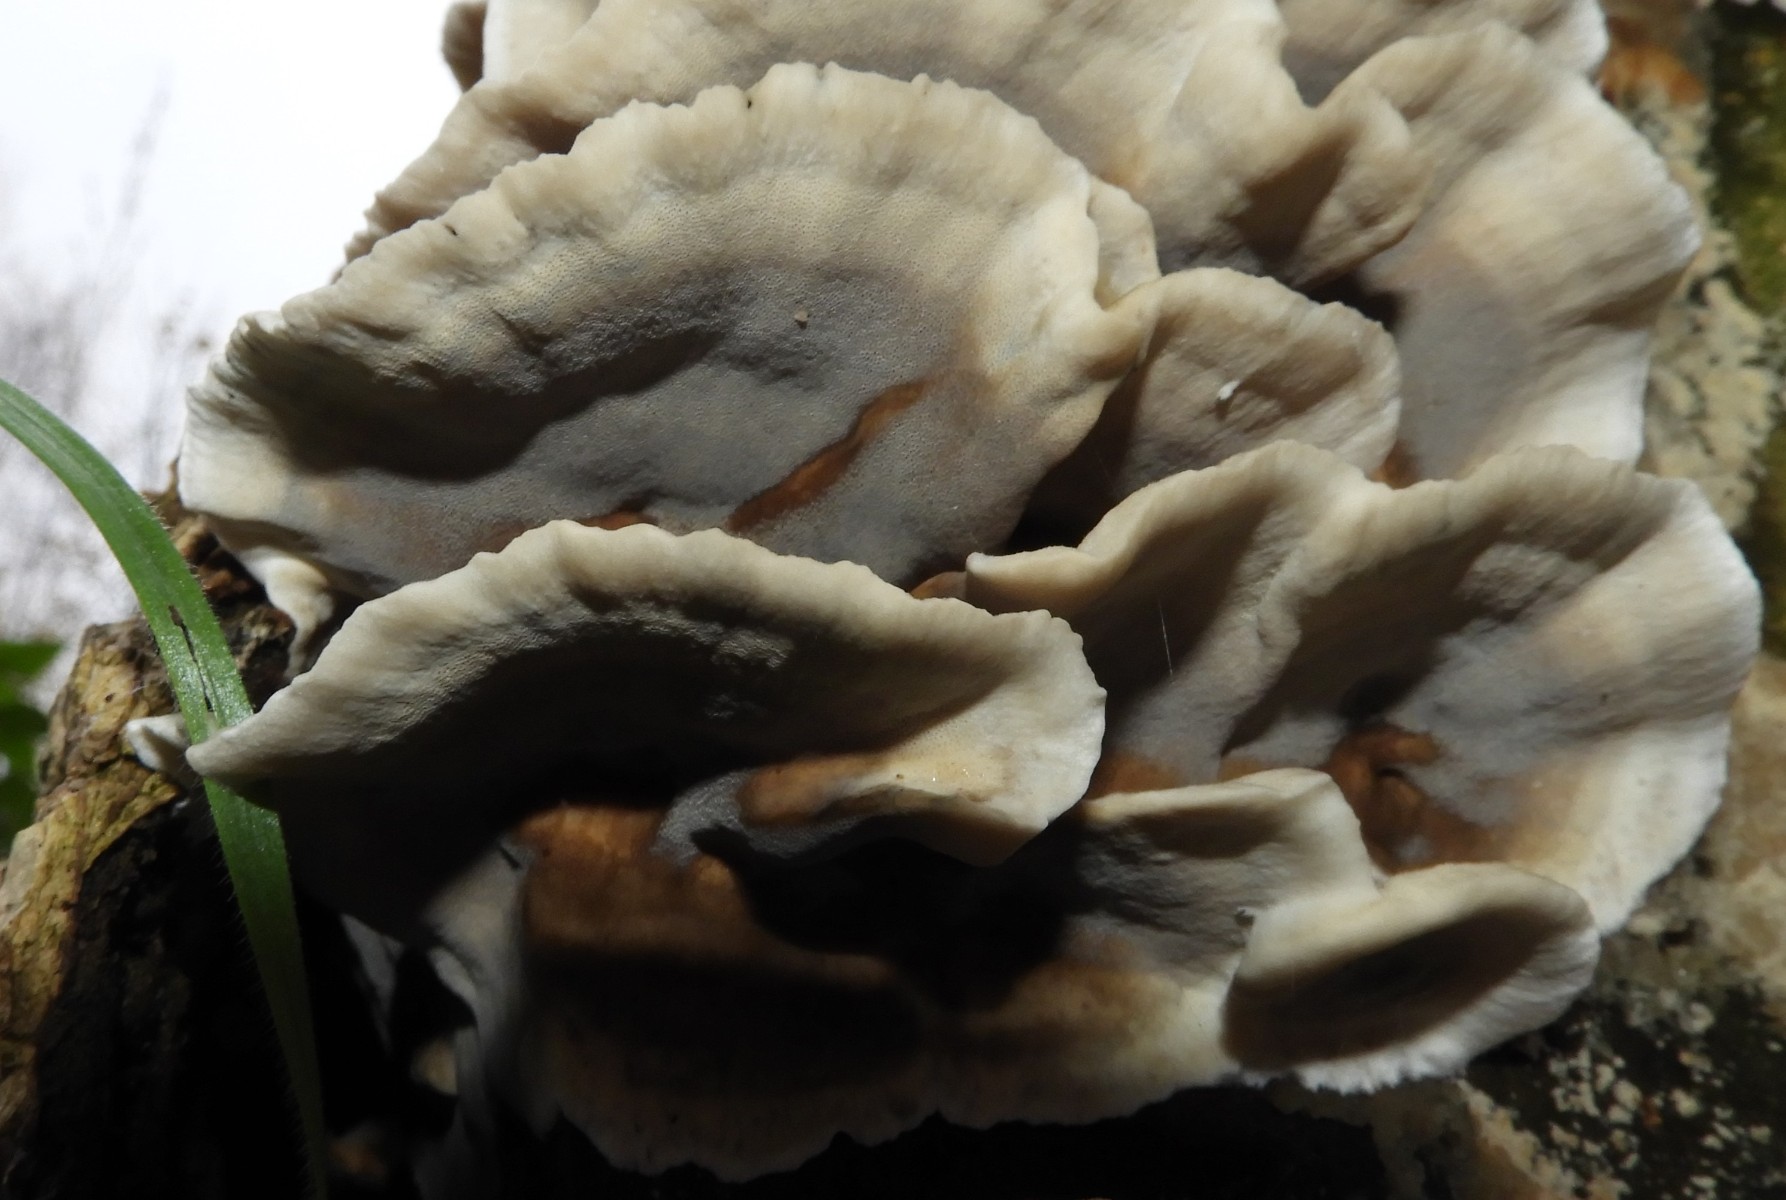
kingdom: Fungi
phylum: Basidiomycota
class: Agaricomycetes
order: Polyporales
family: Phanerochaetaceae
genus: Bjerkandera
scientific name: Bjerkandera adusta
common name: sveden sodporesvamp
